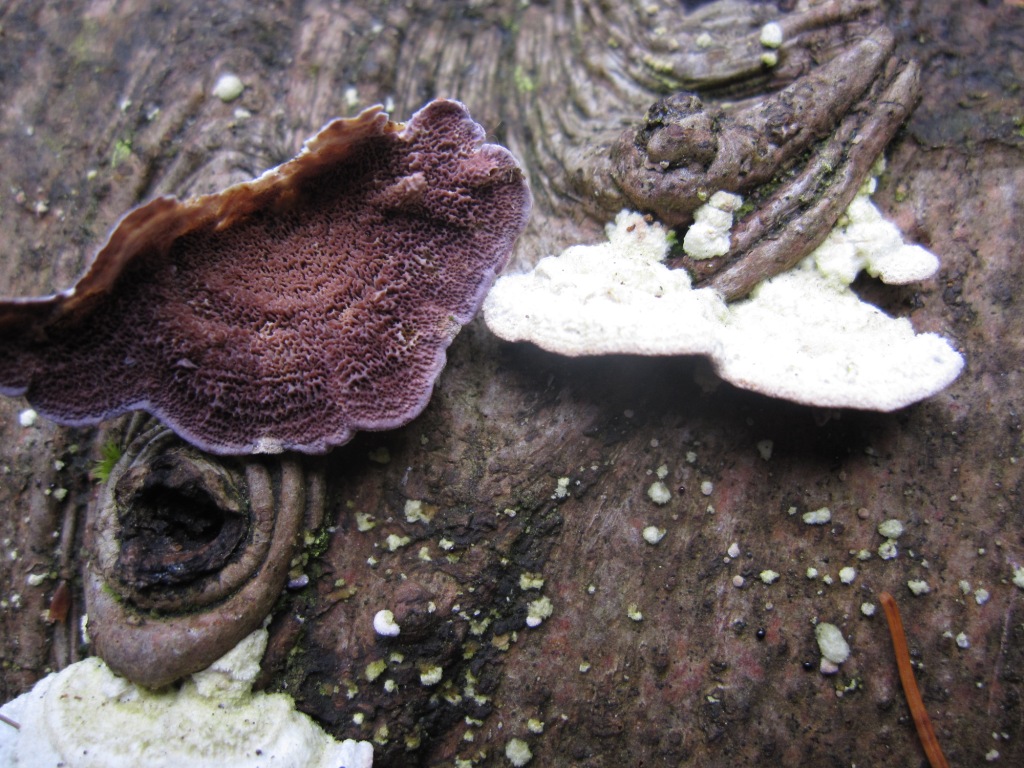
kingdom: Fungi
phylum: Basidiomycota
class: Agaricomycetes
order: Hymenochaetales
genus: Trichaptum
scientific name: Trichaptum abietinum
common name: almindelig violporesvamp
